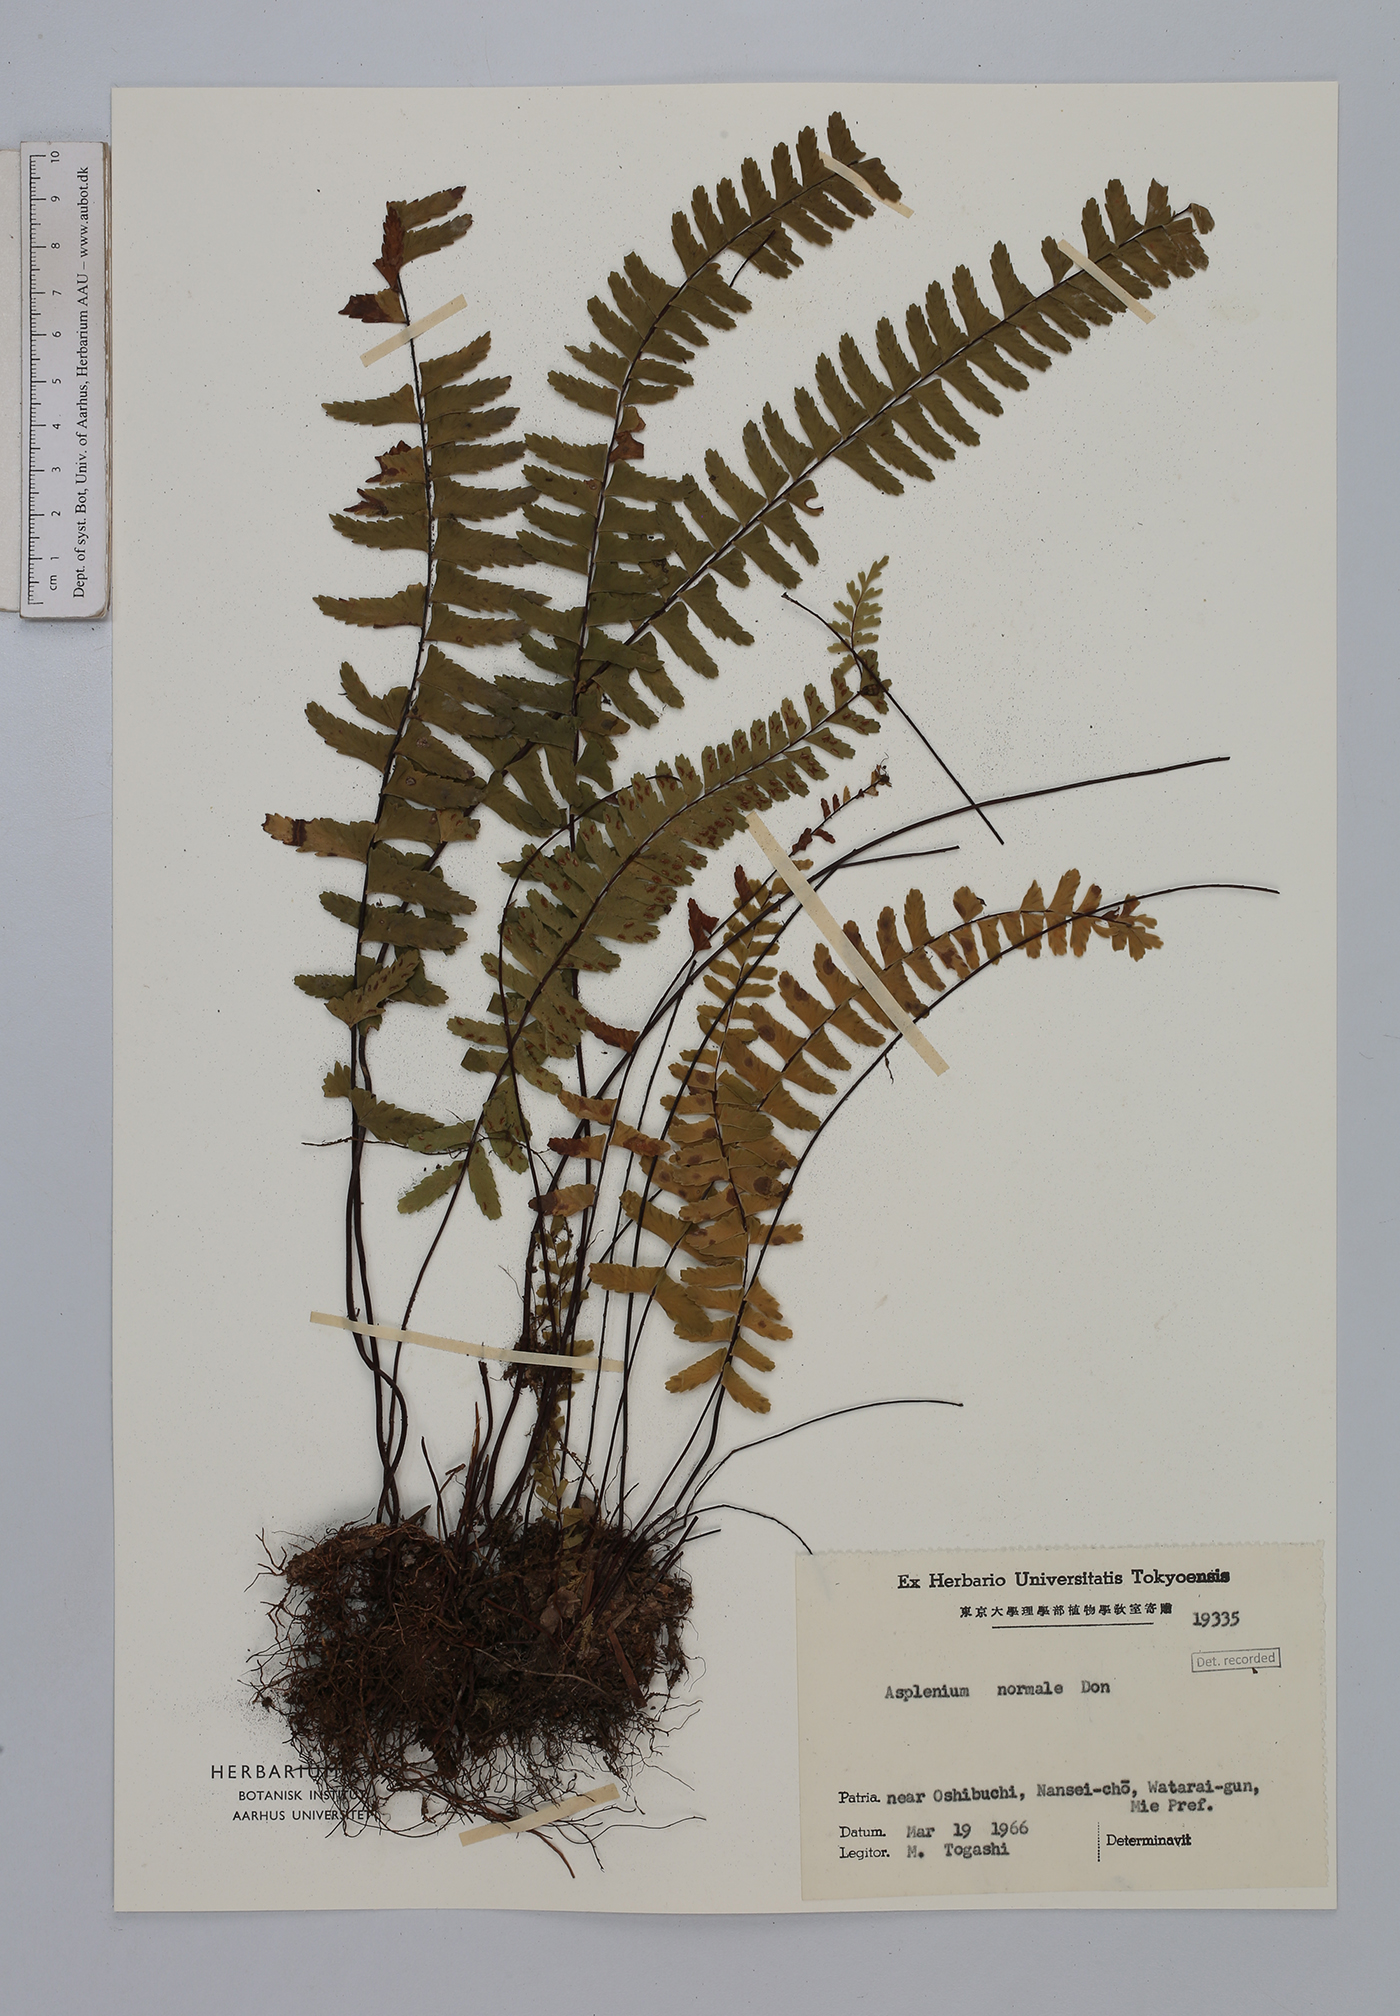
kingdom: Plantae
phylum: Tracheophyta
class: Polypodiopsida
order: Polypodiales
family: Aspleniaceae
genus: Asplenium
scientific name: Asplenium normale
